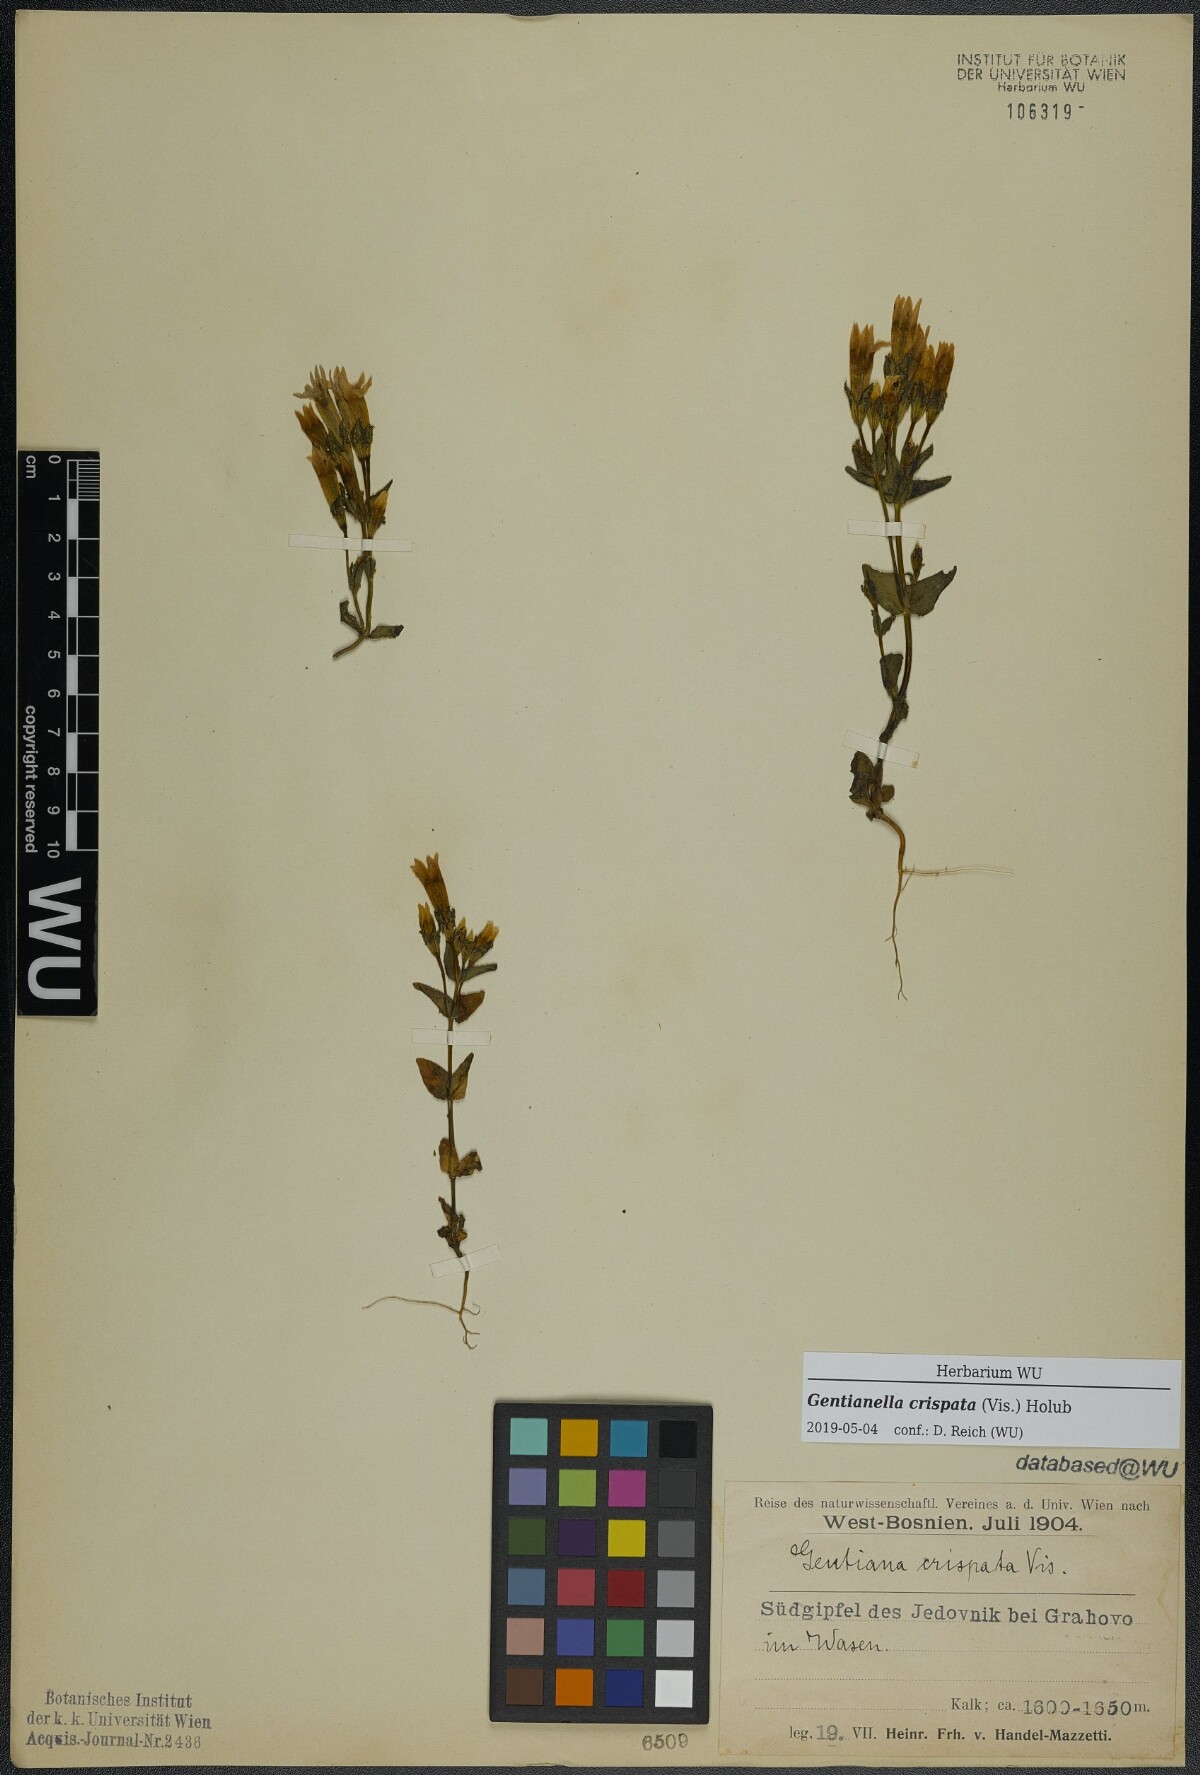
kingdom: Plantae
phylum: Tracheophyta
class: Magnoliopsida
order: Gentianales
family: Gentianaceae
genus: Gentianella
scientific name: Gentianella crispata
